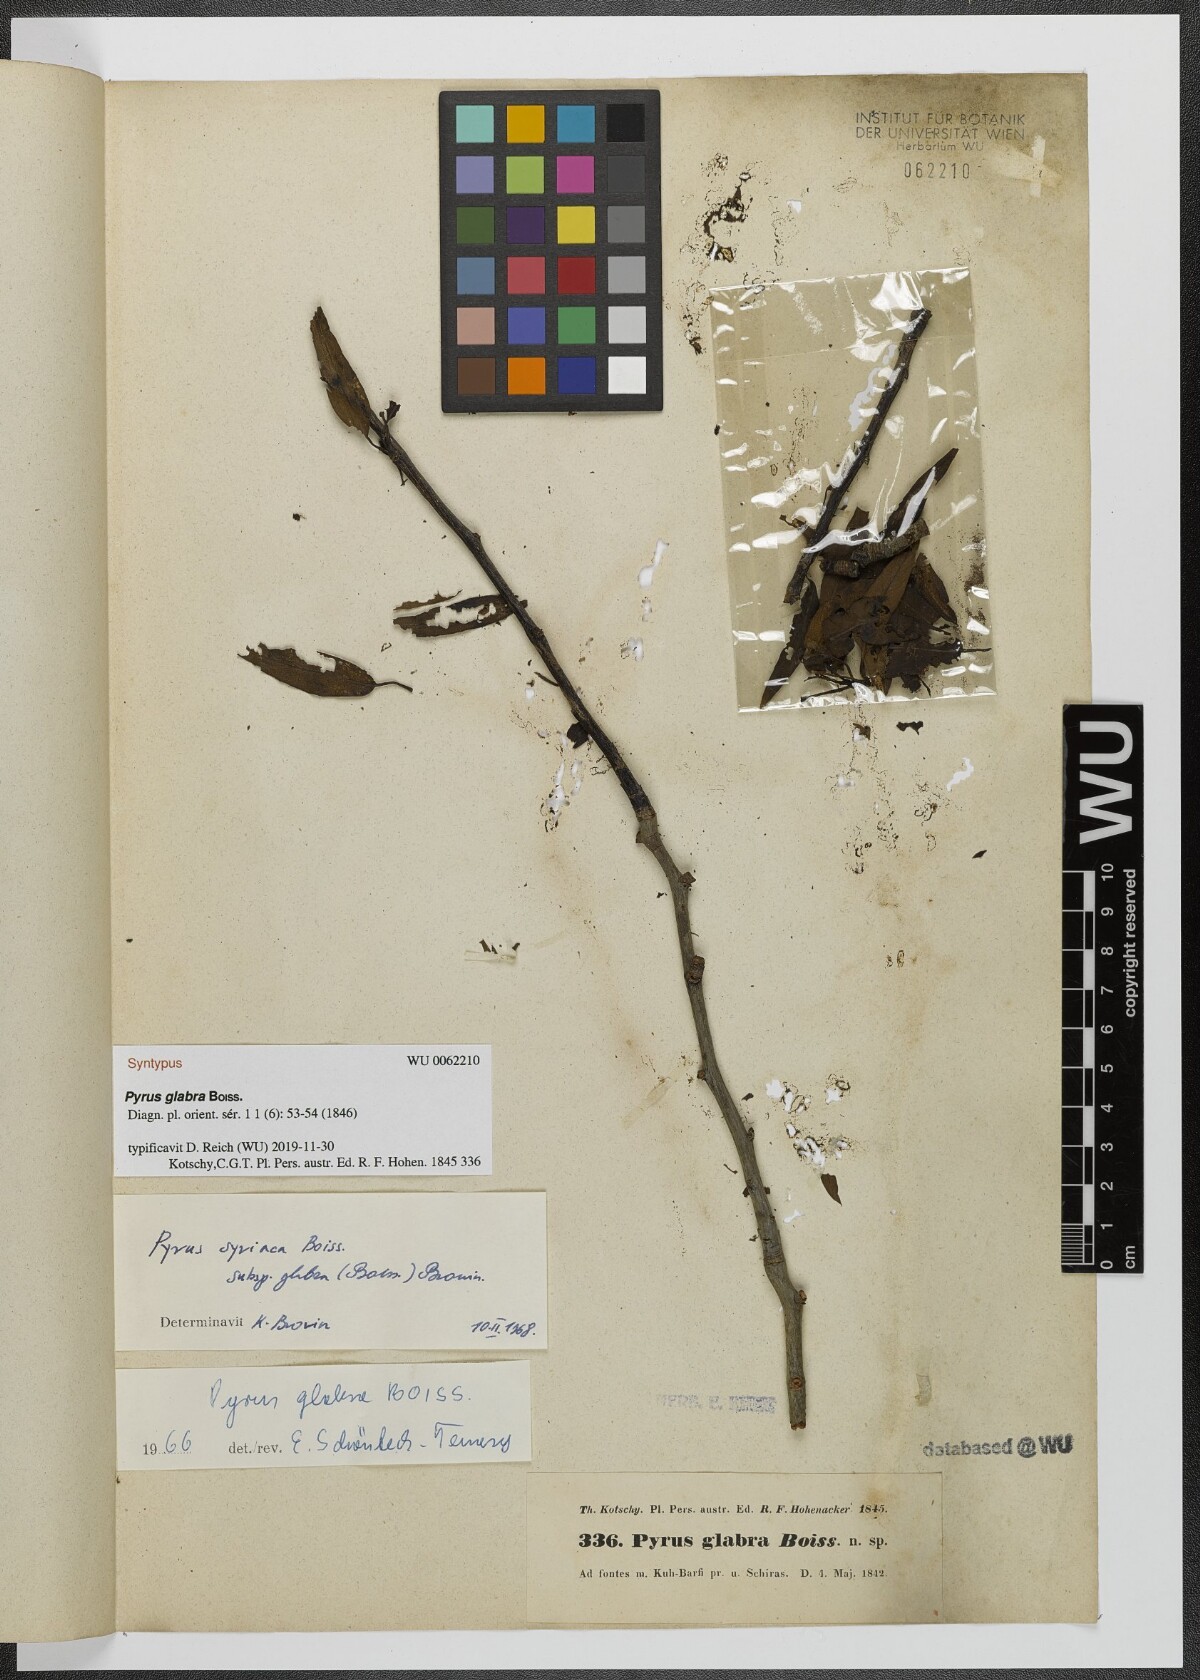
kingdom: Plantae
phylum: Tracheophyta
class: Magnoliopsida
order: Rosales
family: Rosaceae
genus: Pyrus
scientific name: Pyrus glabra
